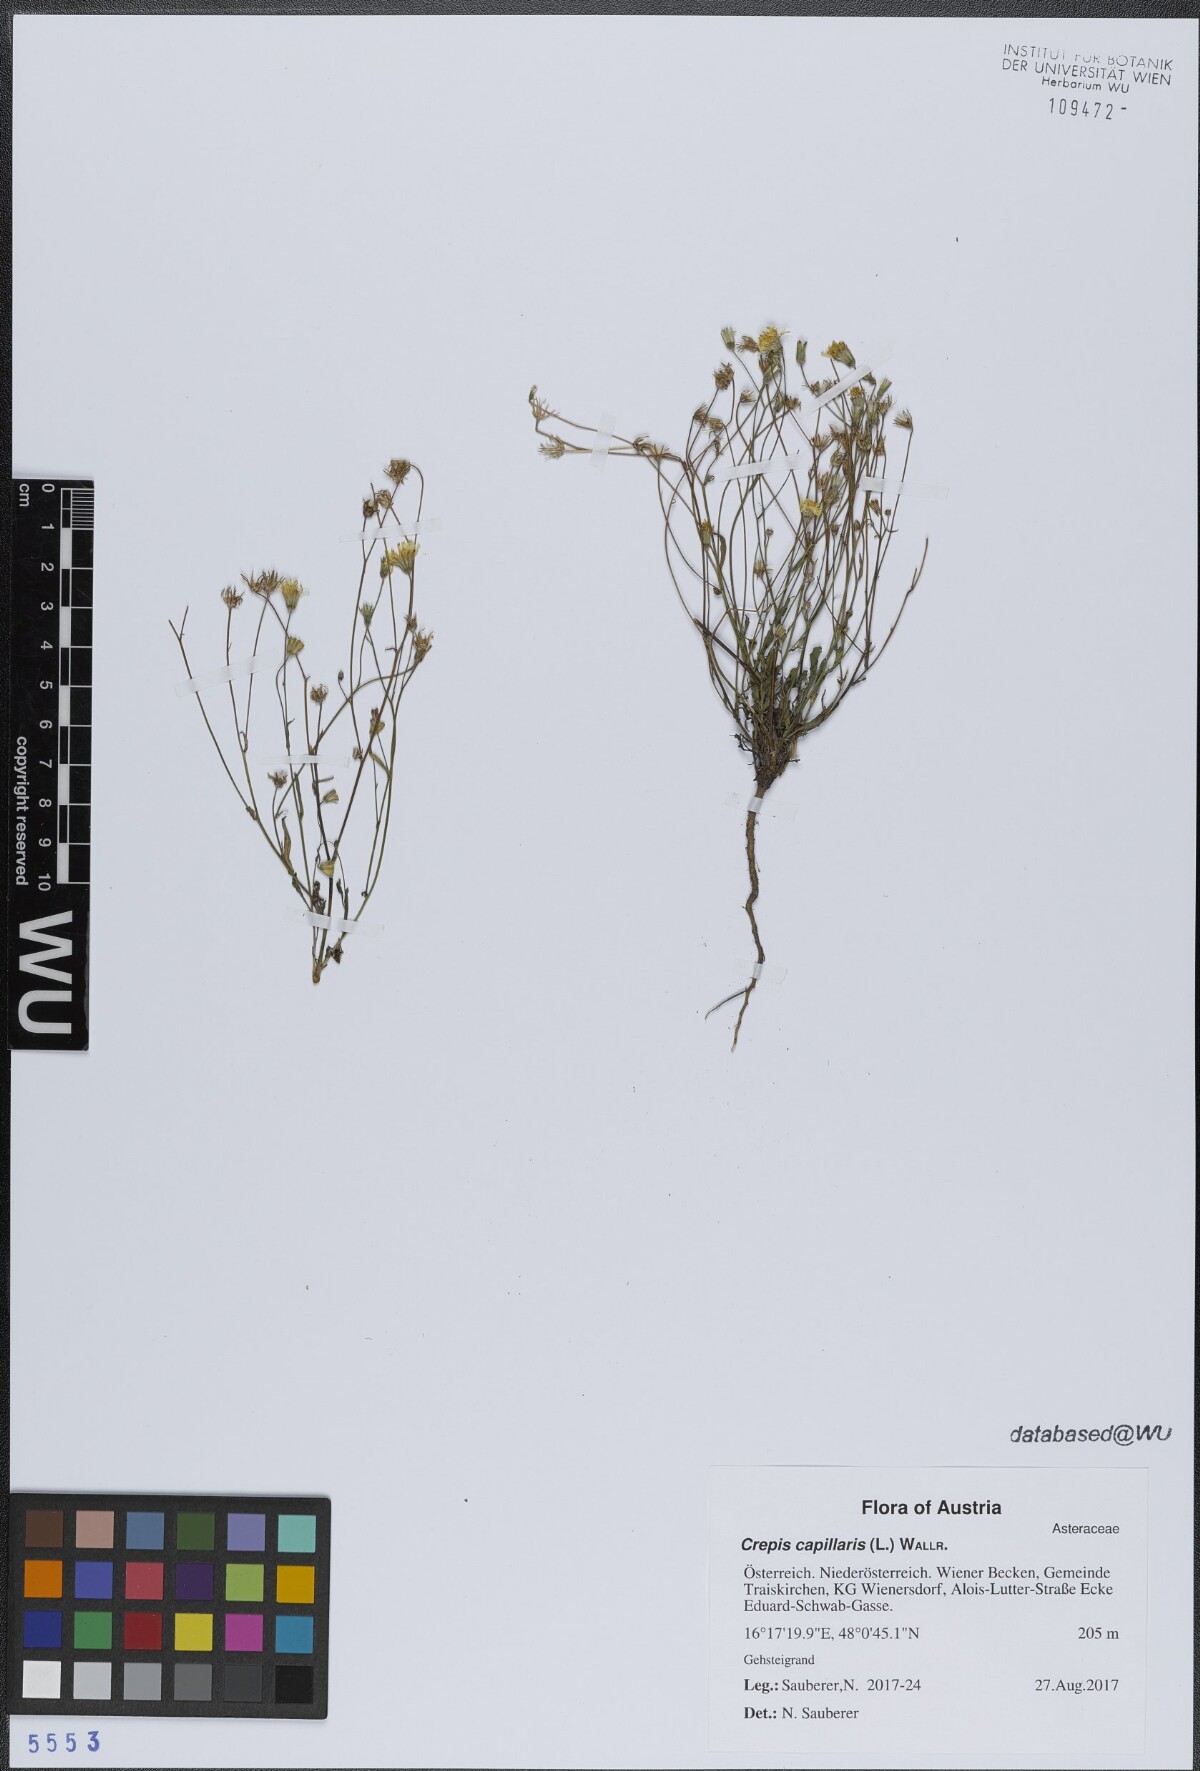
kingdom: Plantae
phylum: Tracheophyta
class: Magnoliopsida
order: Asterales
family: Asteraceae
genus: Crepis
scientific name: Crepis capillaris
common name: Smooth hawksbeard
